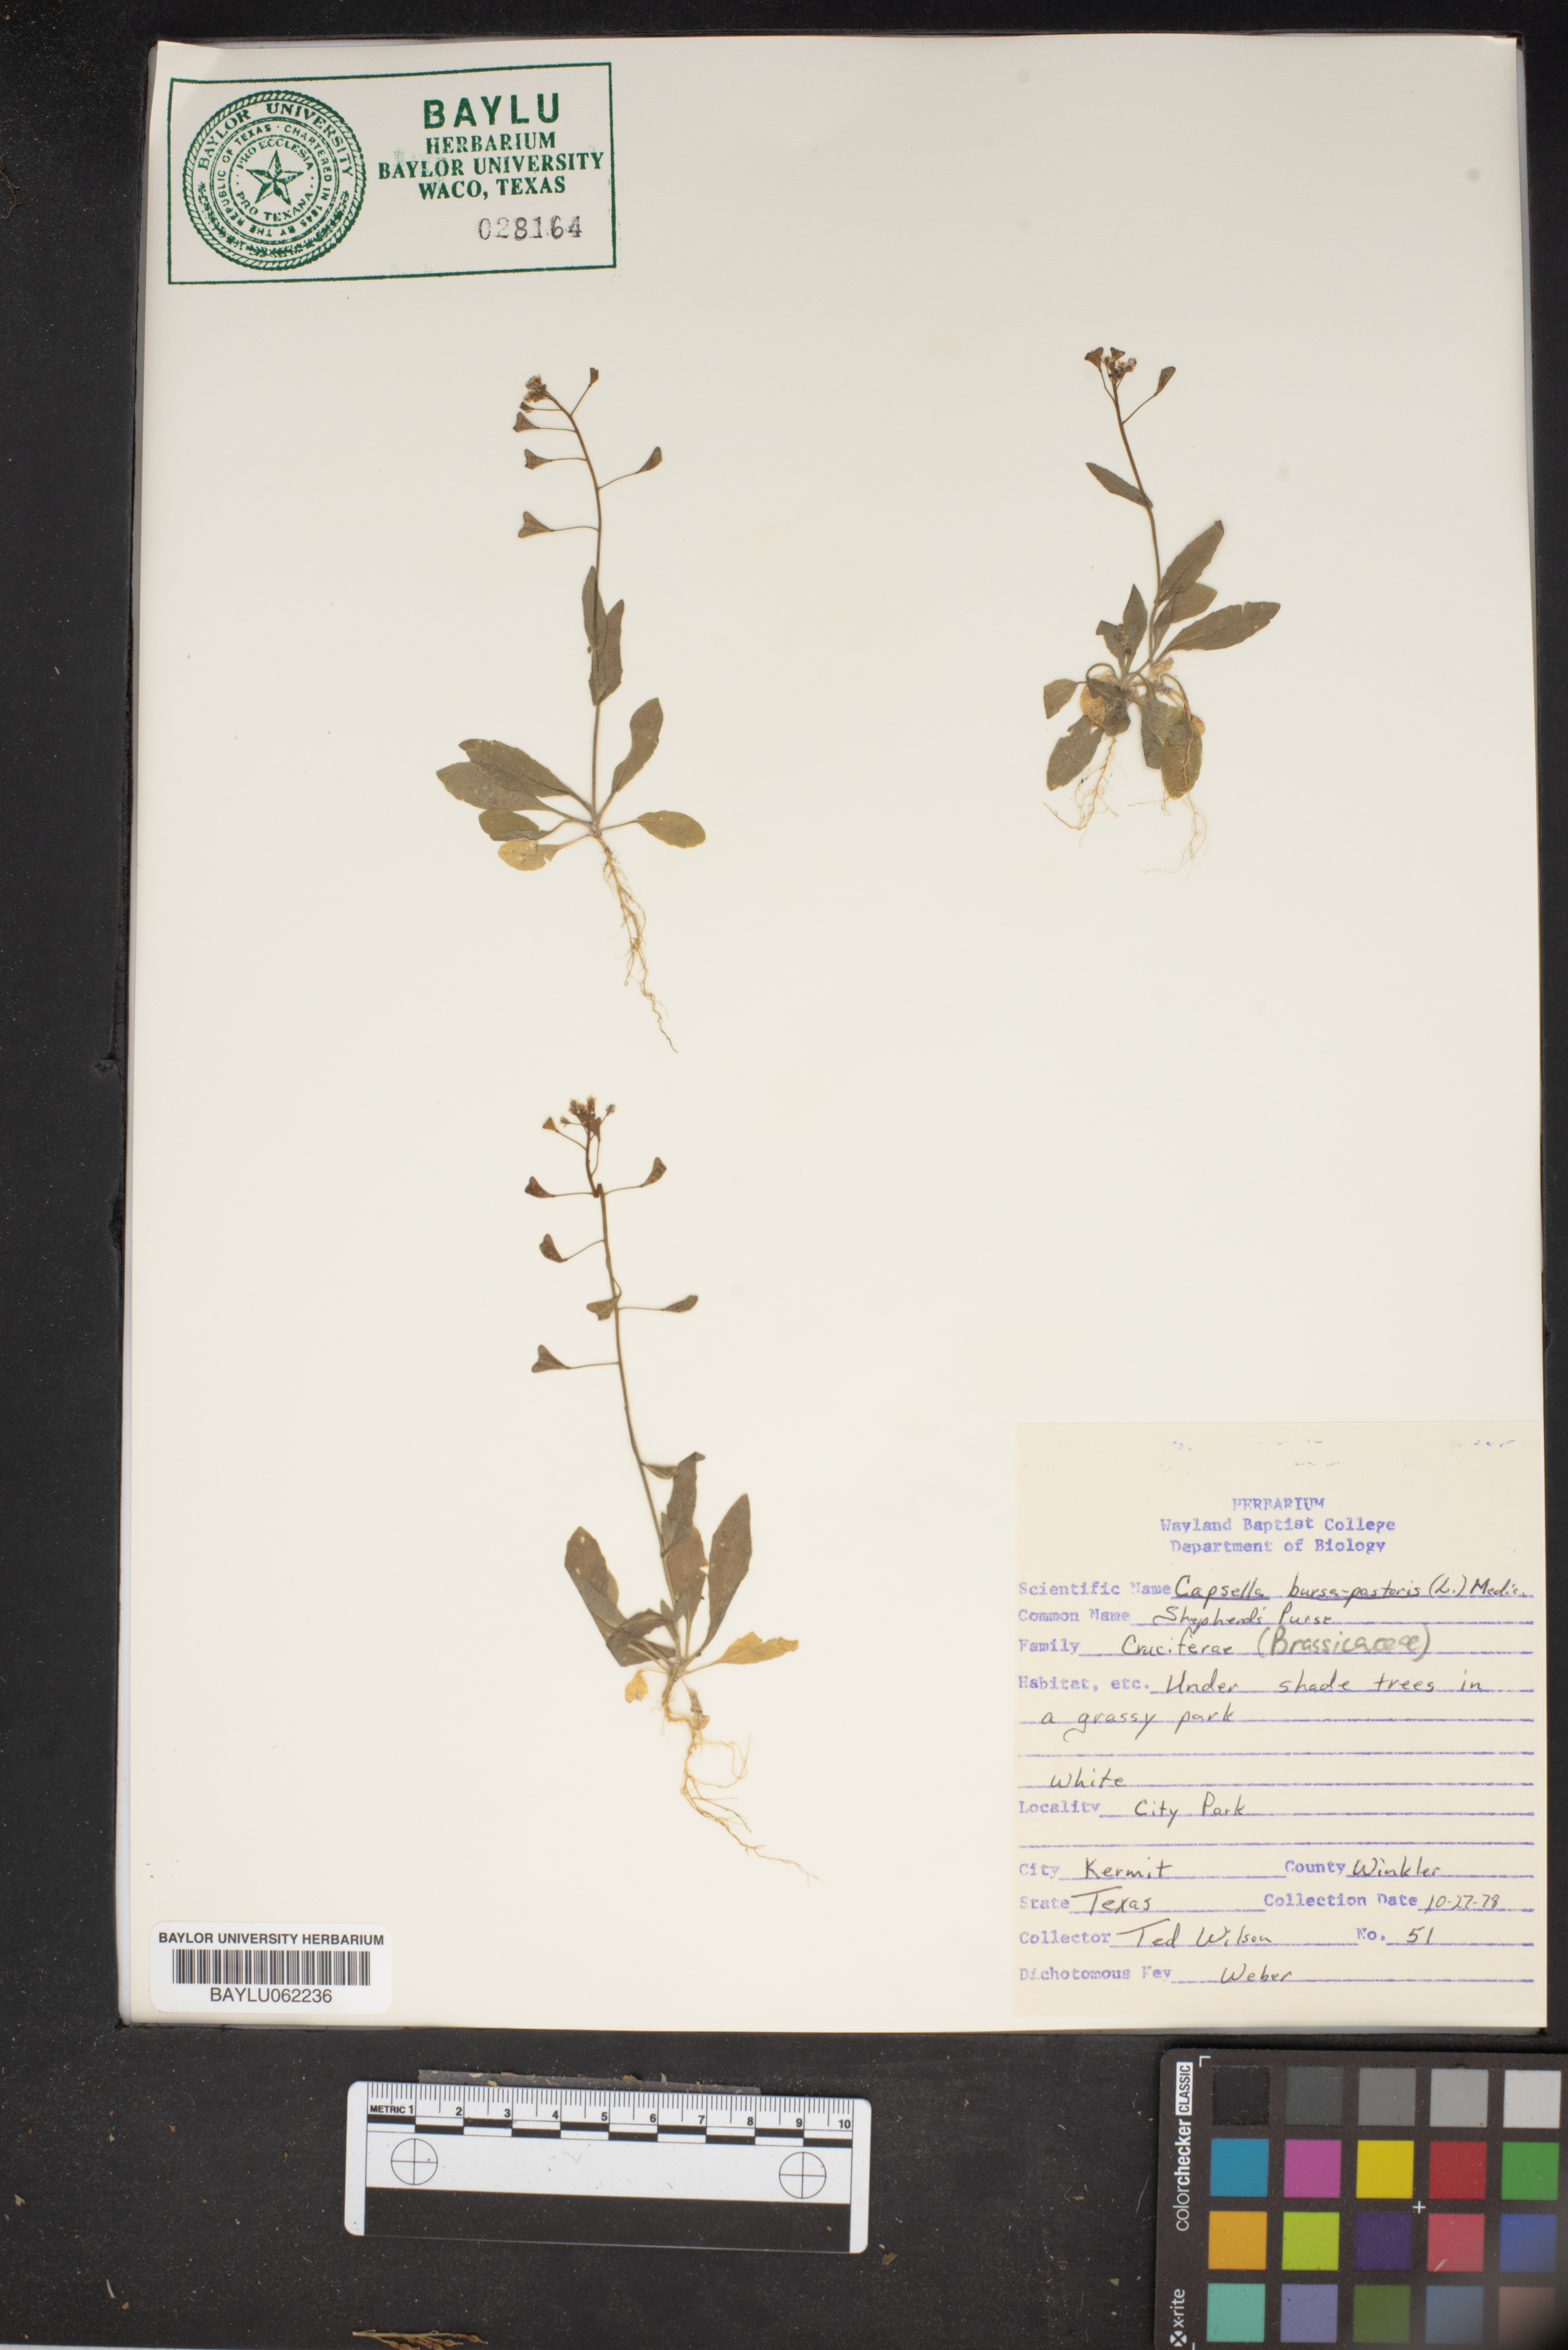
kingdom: Plantae
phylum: Tracheophyta
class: Magnoliopsida
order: Brassicales
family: Brassicaceae
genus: Capsella
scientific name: Capsella bursa-pastoris
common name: Shepherd's purse
